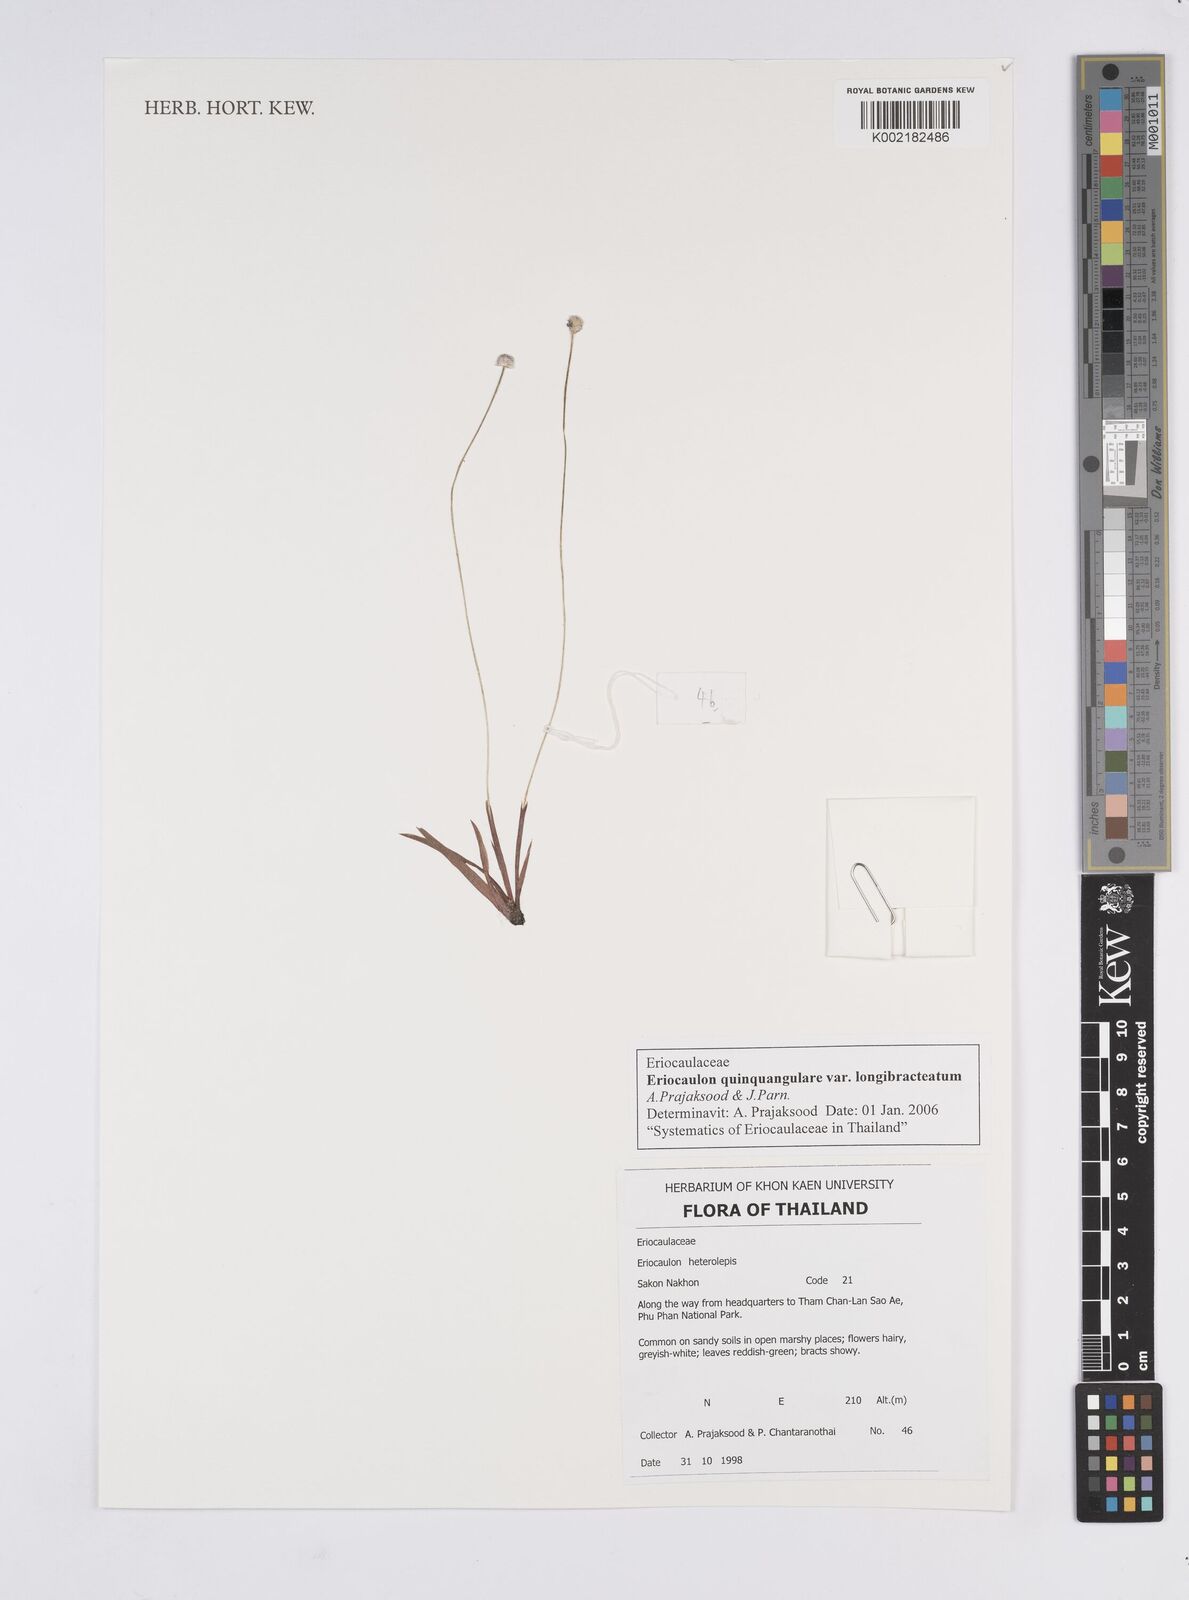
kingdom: Plantae
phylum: Tracheophyta
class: Liliopsida
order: Poales
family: Eriocaulaceae
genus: Eriocaulon
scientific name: Eriocaulon quinquangulare
